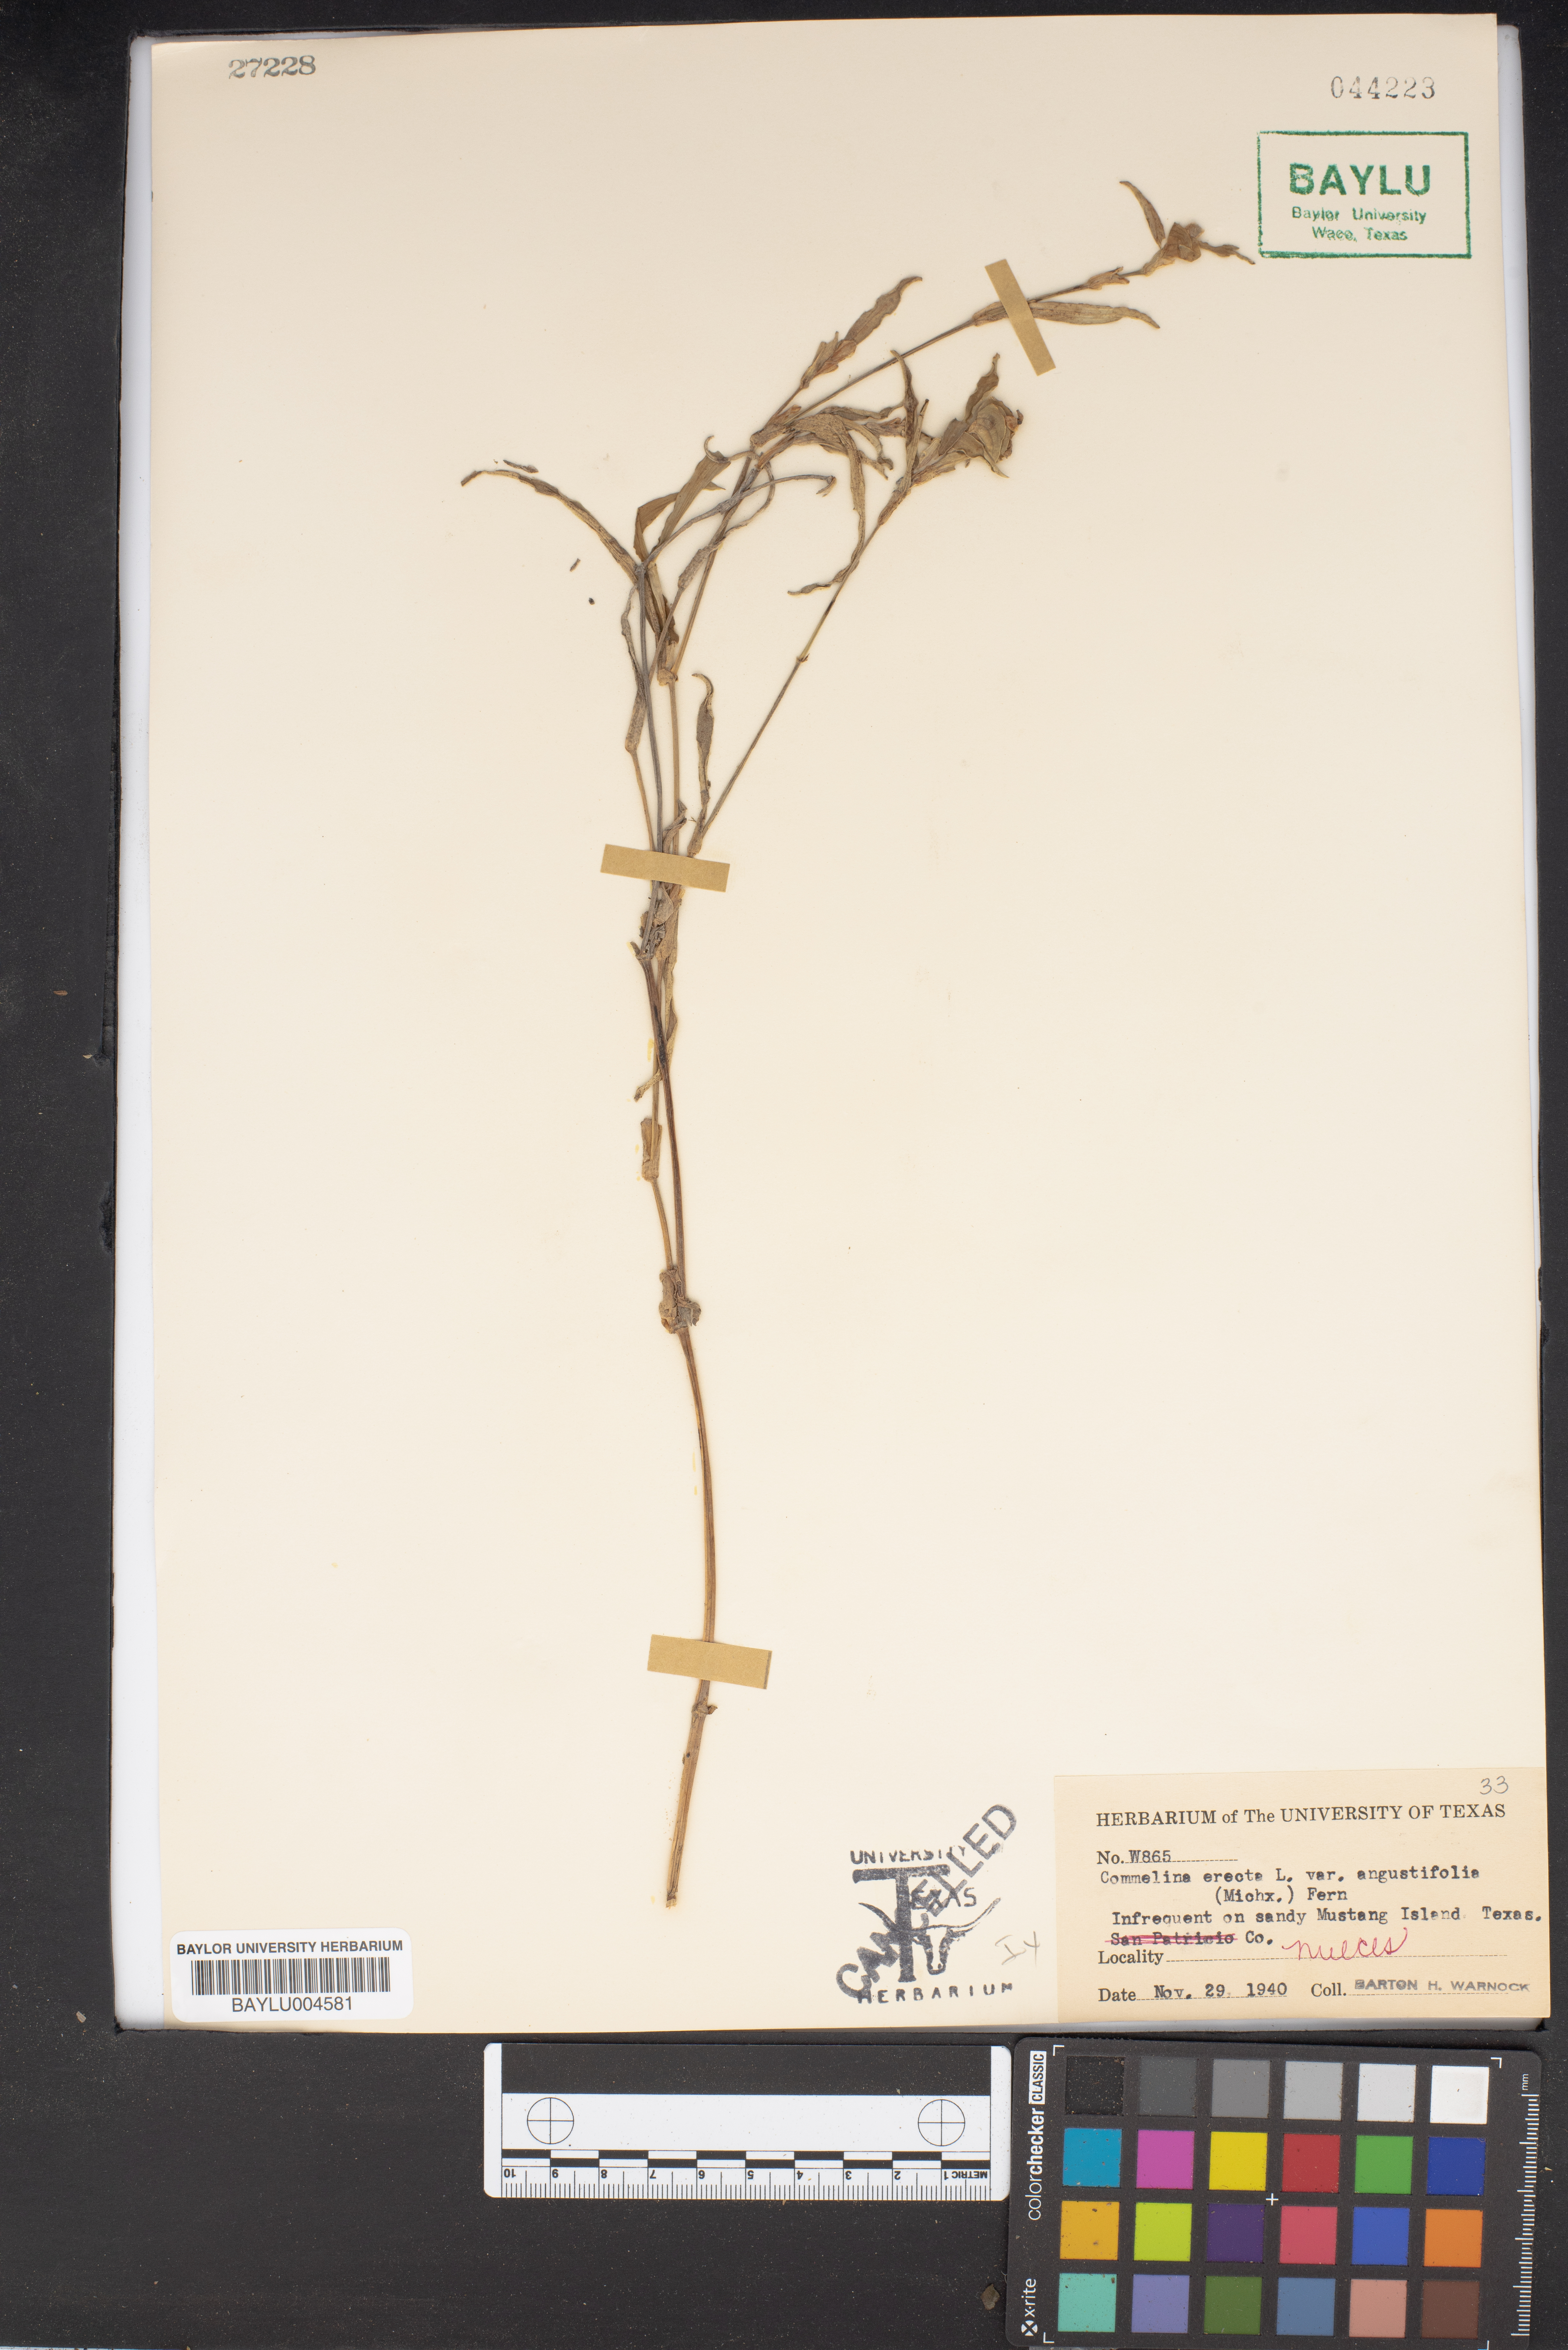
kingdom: Plantae
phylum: Tracheophyta
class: Liliopsida
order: Commelinales
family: Commelinaceae
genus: Commelina
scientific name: Commelina erecta
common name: Blousel blommetjie
